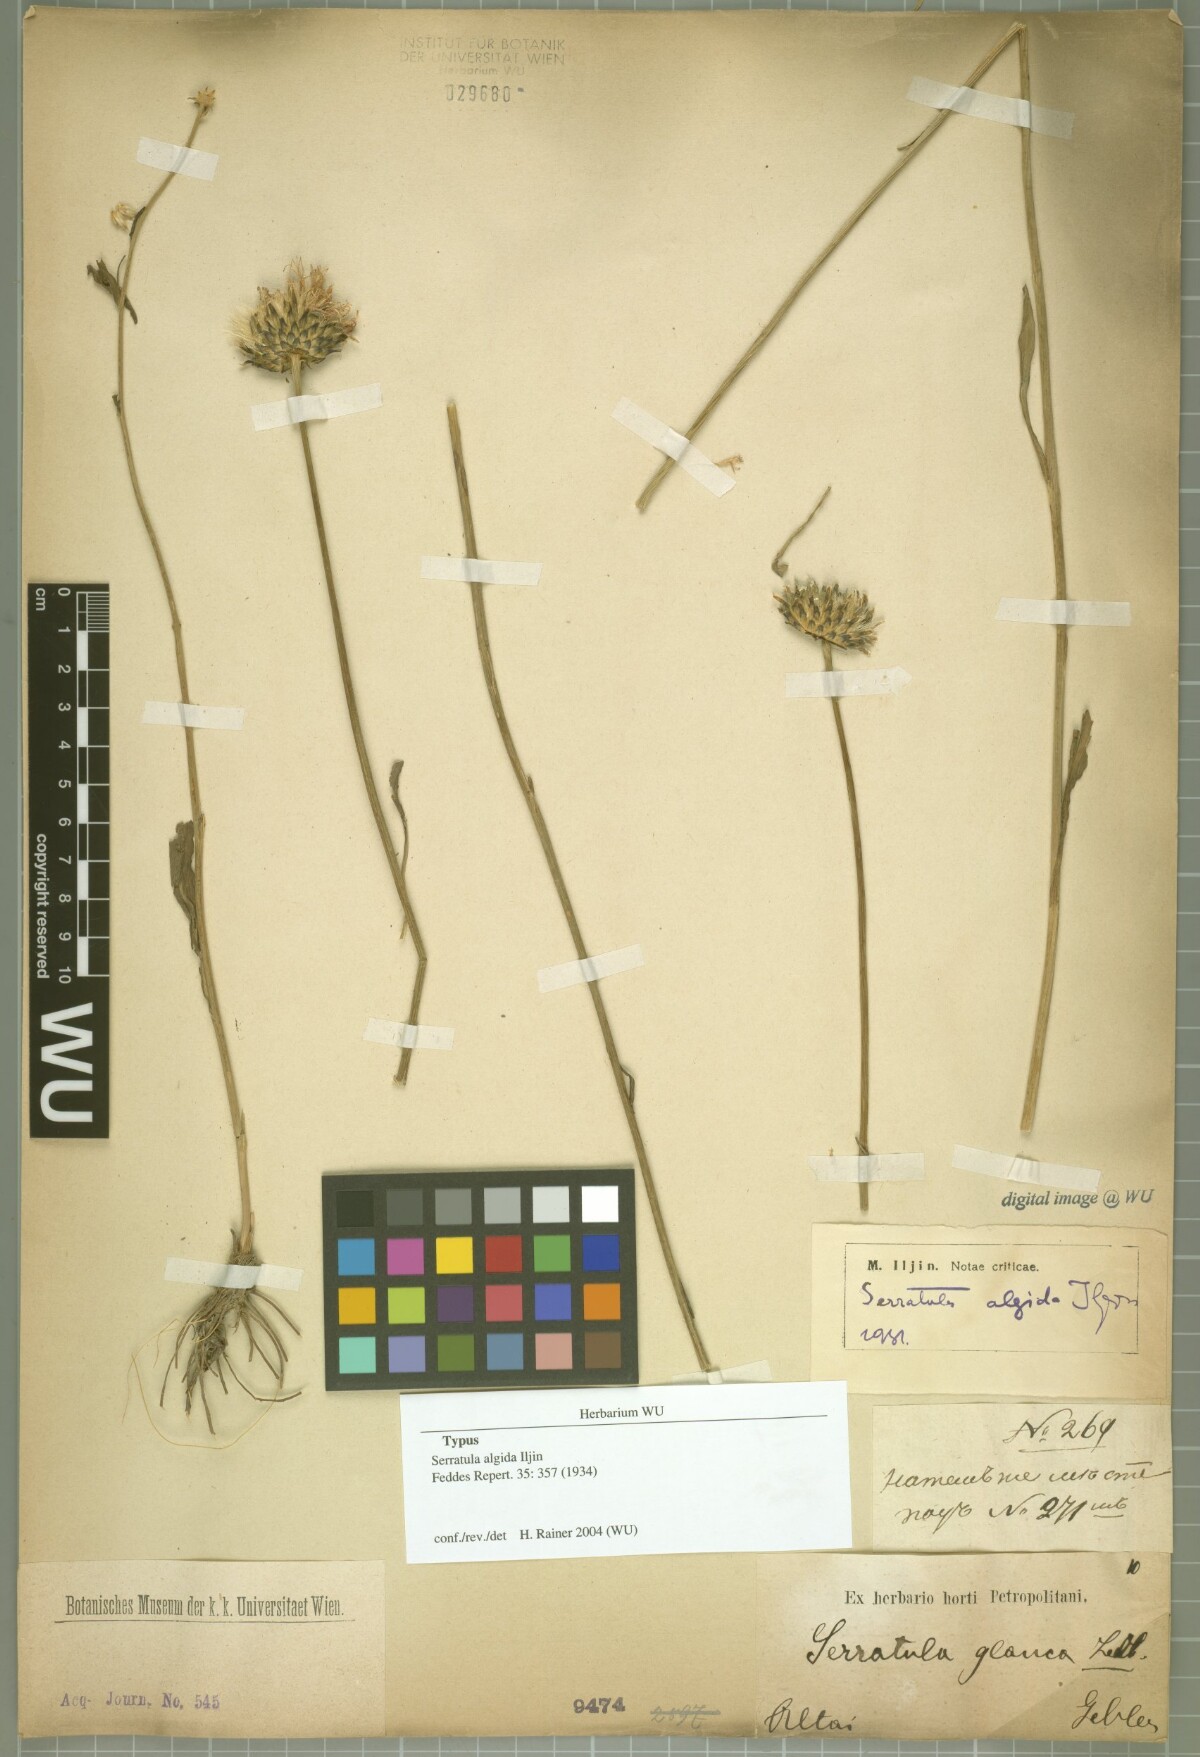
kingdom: Plantae
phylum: Tracheophyta
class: Magnoliopsida
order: Asterales
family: Asteraceae
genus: Klasea
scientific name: Klasea marginata
